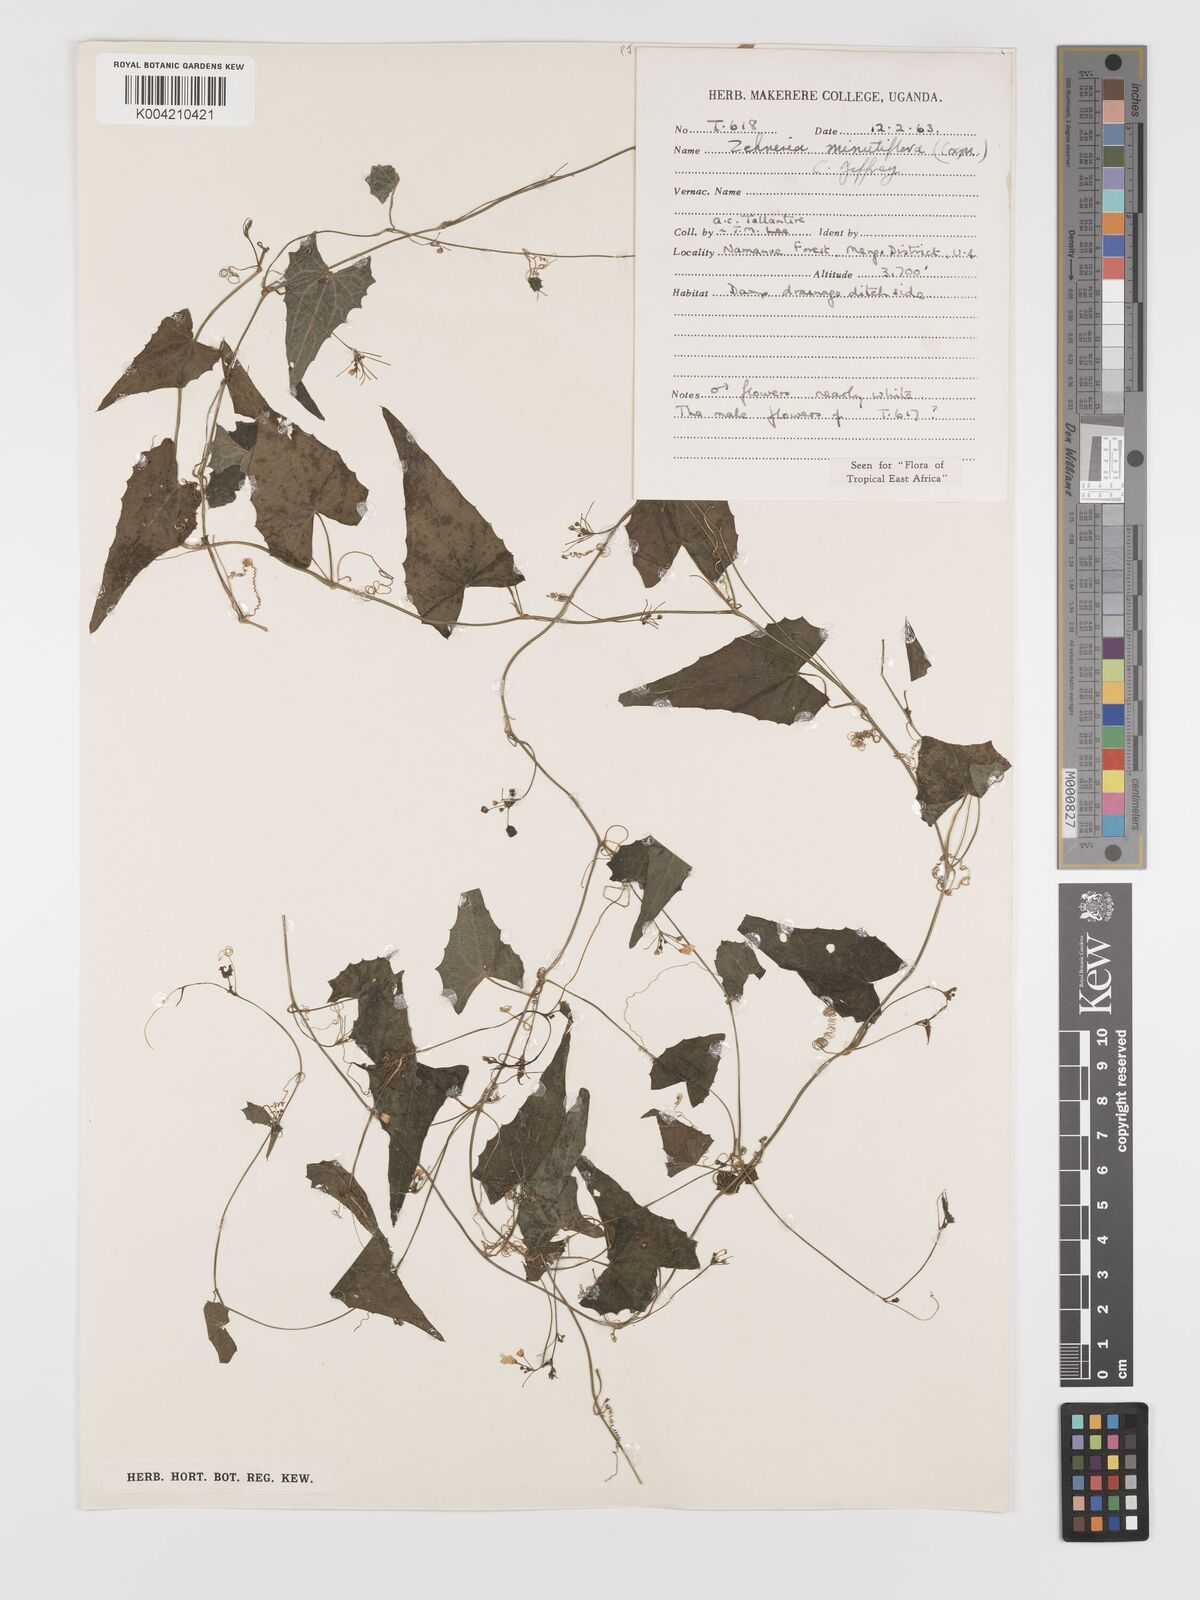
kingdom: Plantae
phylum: Tracheophyta
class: Magnoliopsida
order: Cucurbitales
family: Cucurbitaceae
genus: Zehneria
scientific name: Zehneria minutiflora
